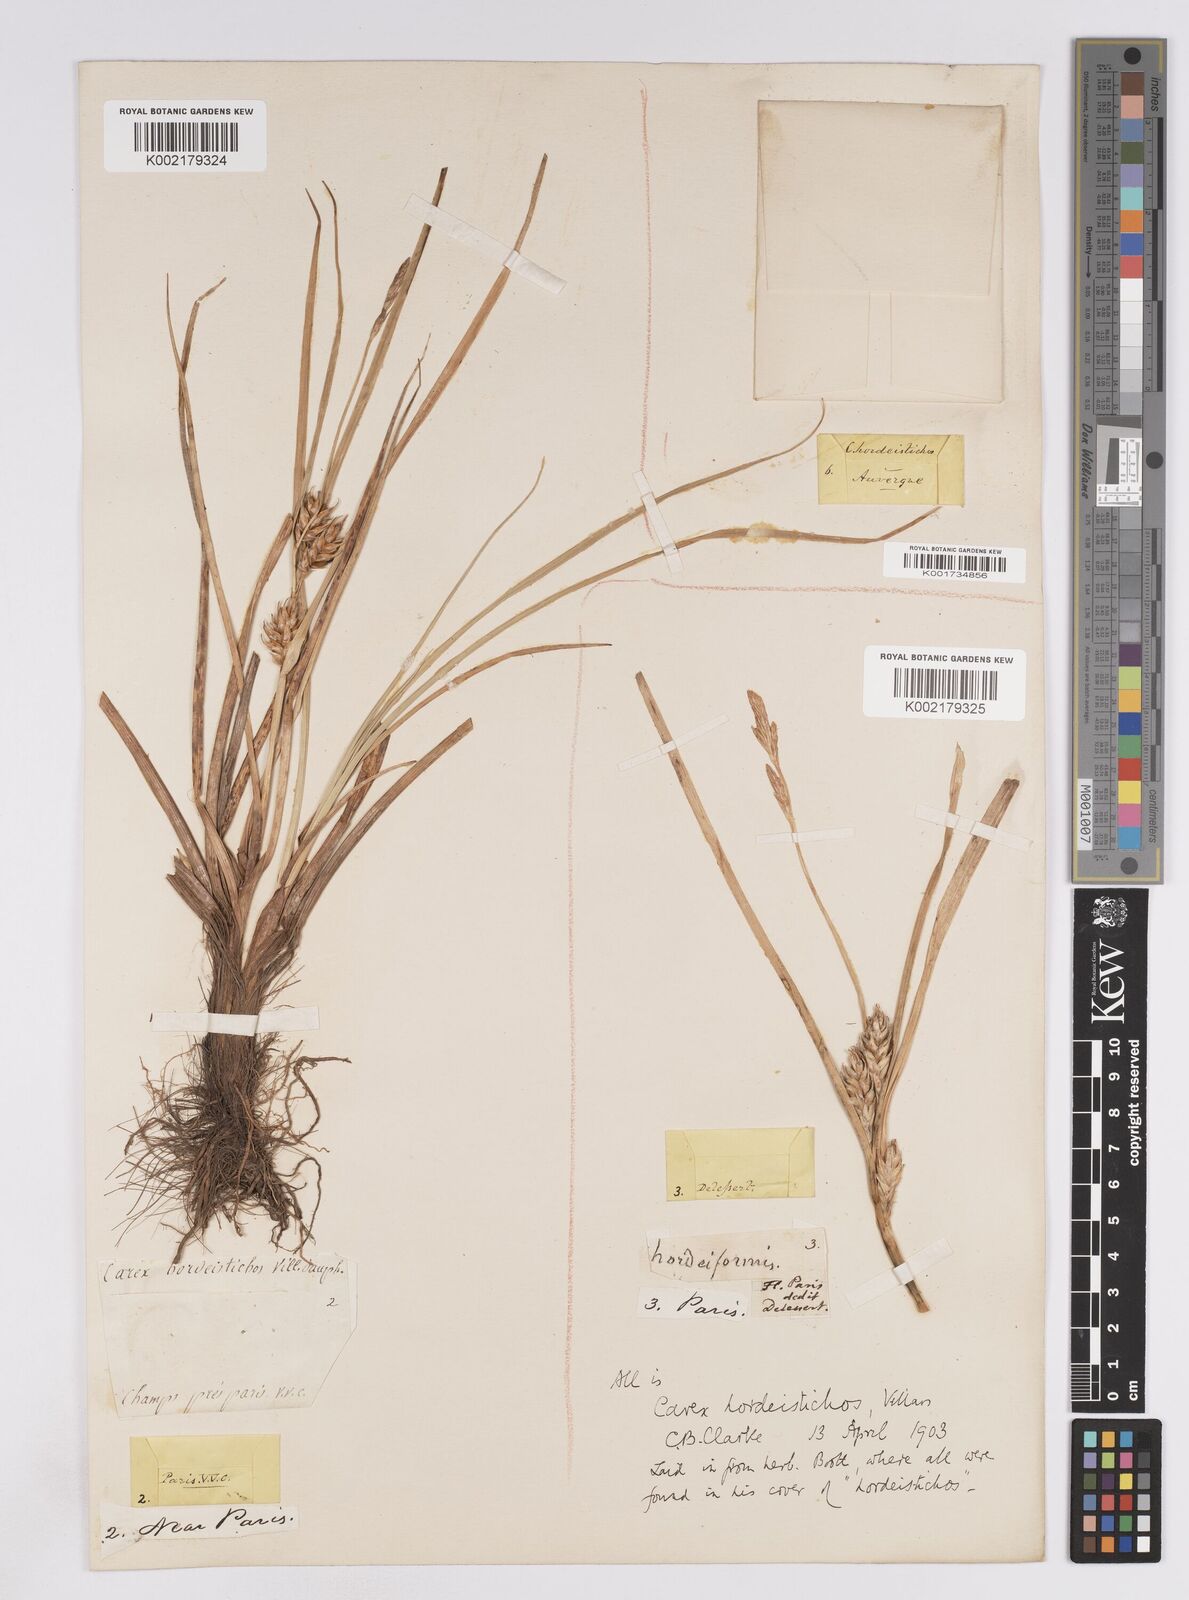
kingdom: Plantae
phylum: Tracheophyta
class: Liliopsida
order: Poales
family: Cyperaceae
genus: Carex
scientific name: Carex hordeistichos
